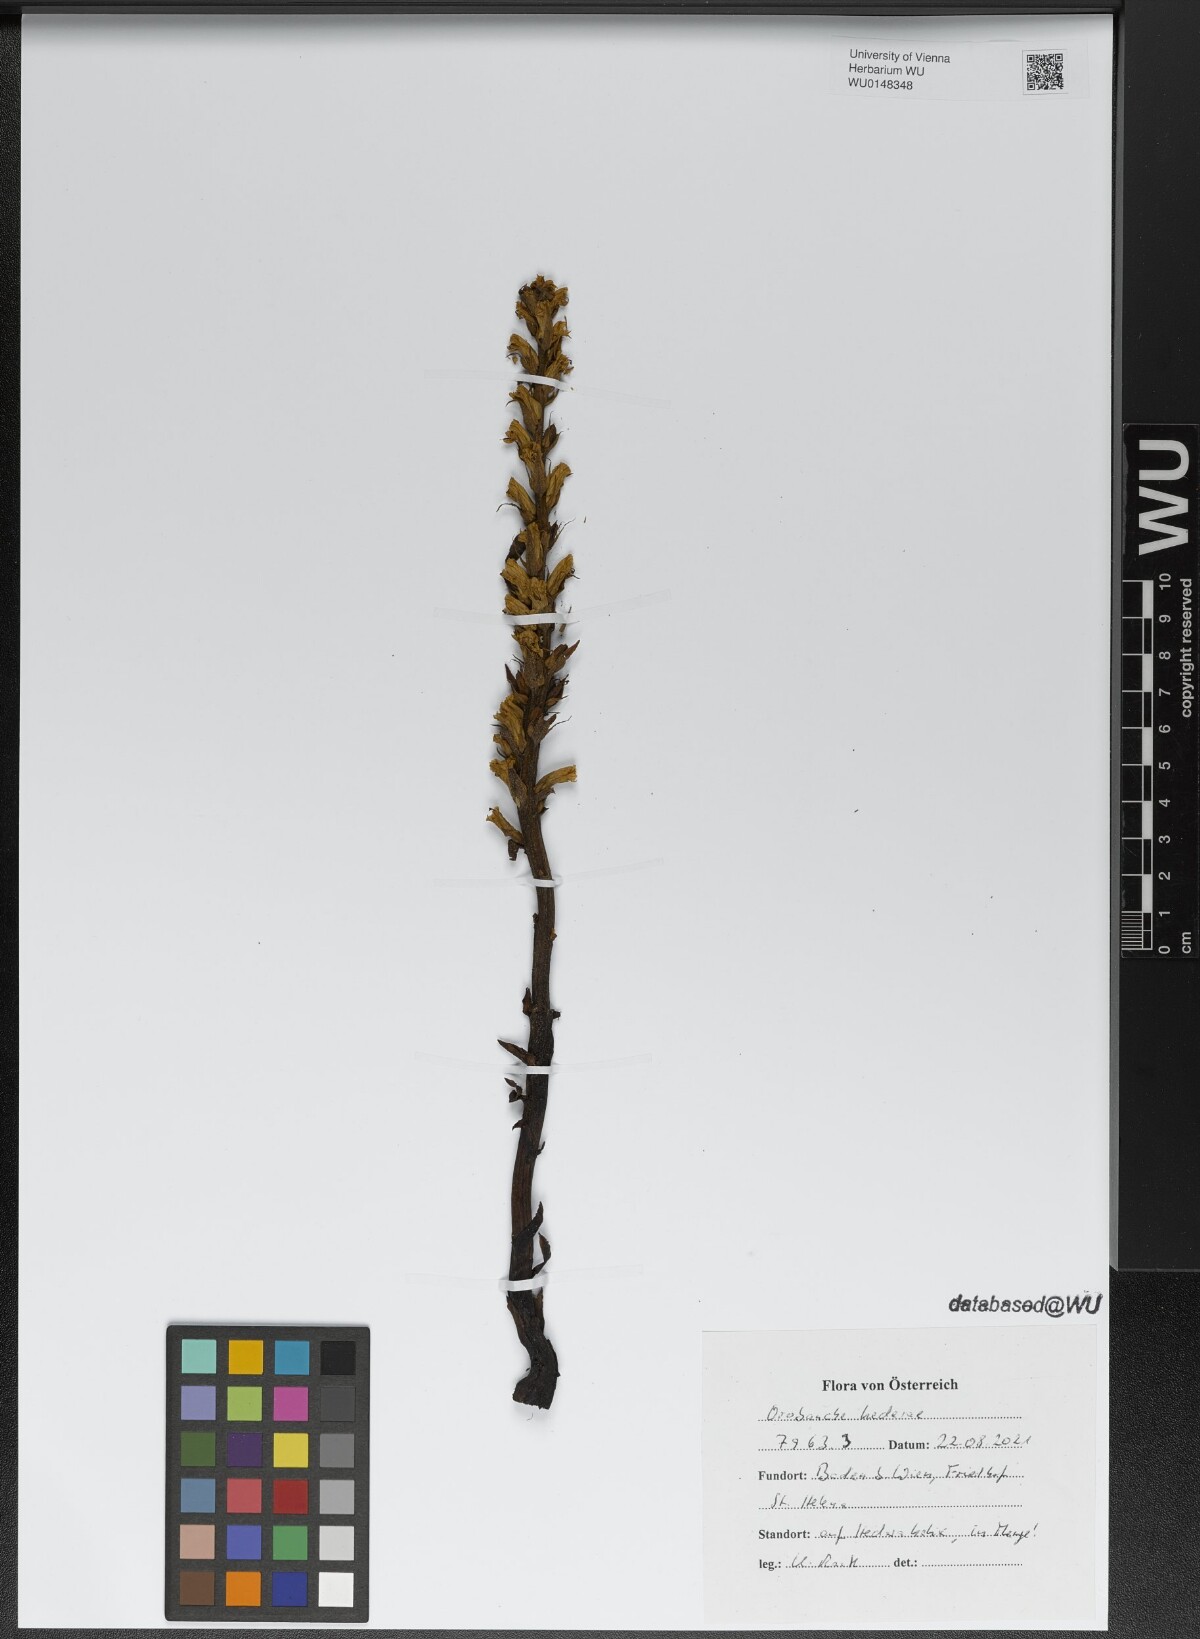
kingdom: Plantae
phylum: Tracheophyta
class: Magnoliopsida
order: Lamiales
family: Orobanchaceae
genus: Orobanche
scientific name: Orobanche hederae
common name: Ivy broomrape
